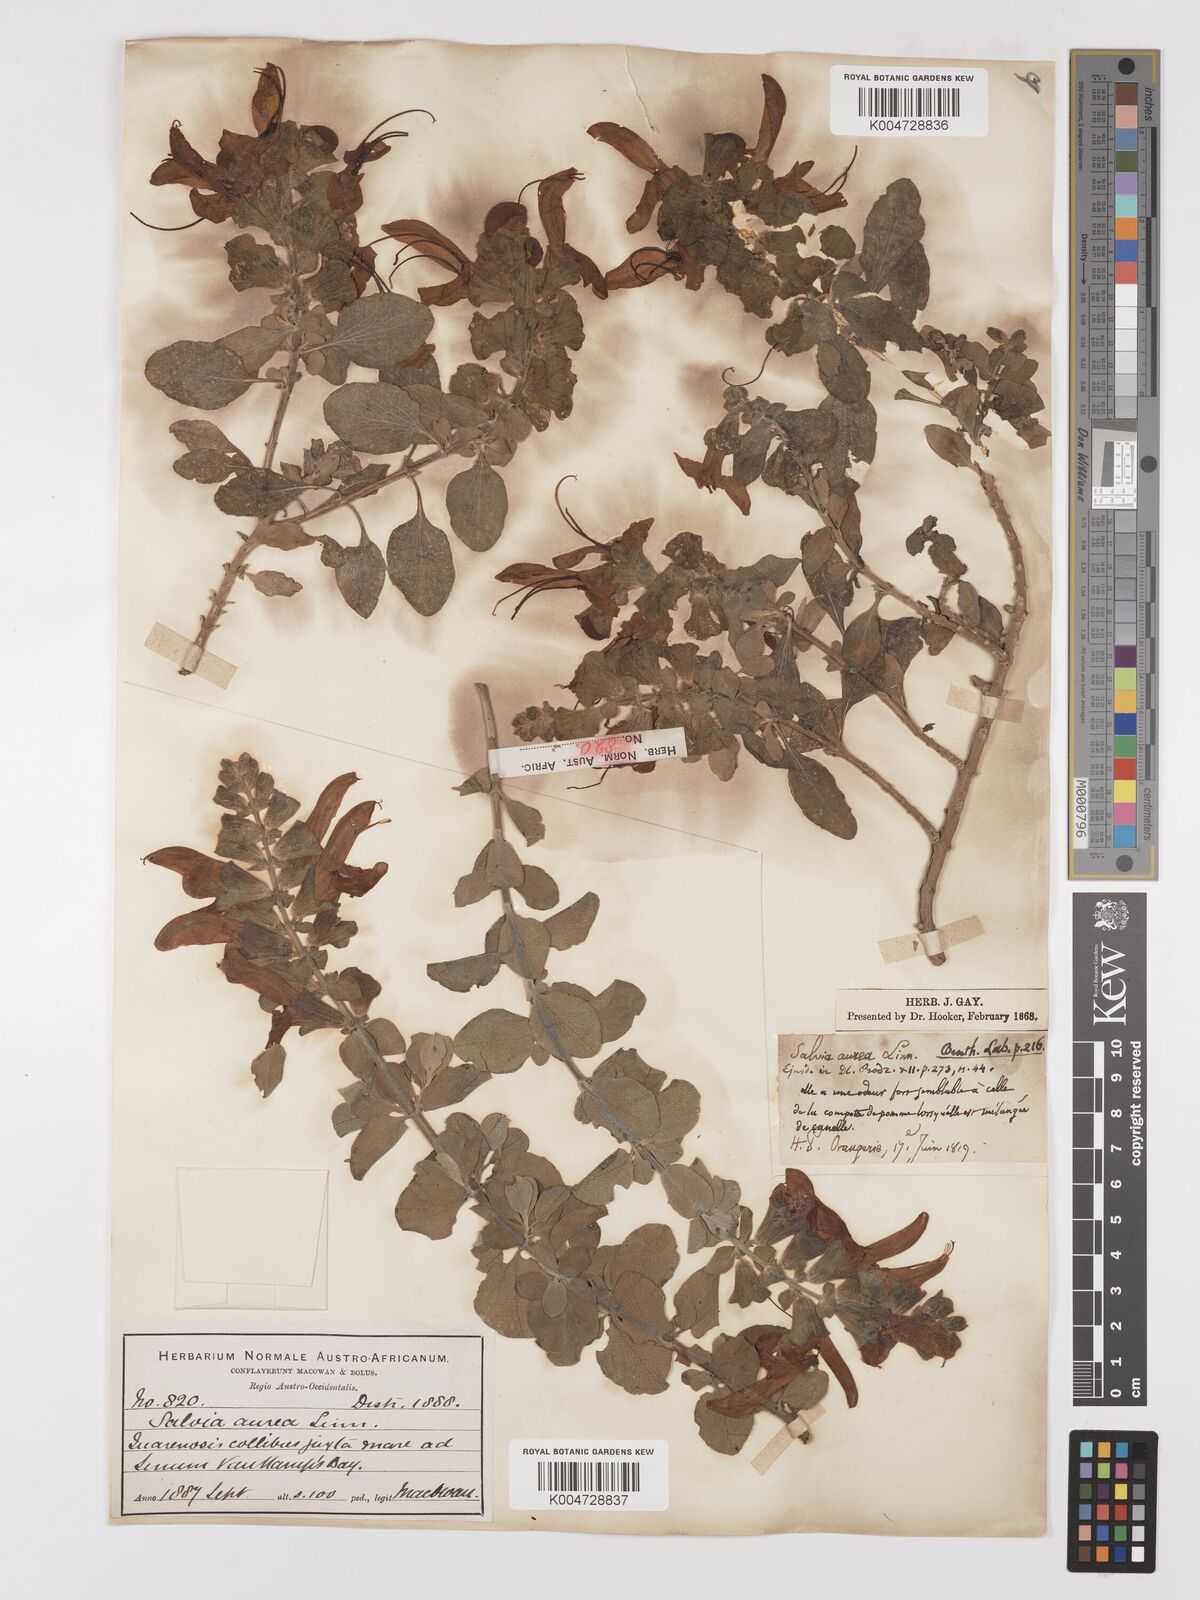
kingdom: Plantae
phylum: Tracheophyta
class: Magnoliopsida
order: Lamiales
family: Lamiaceae
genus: Salvia
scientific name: Salvia aurea
